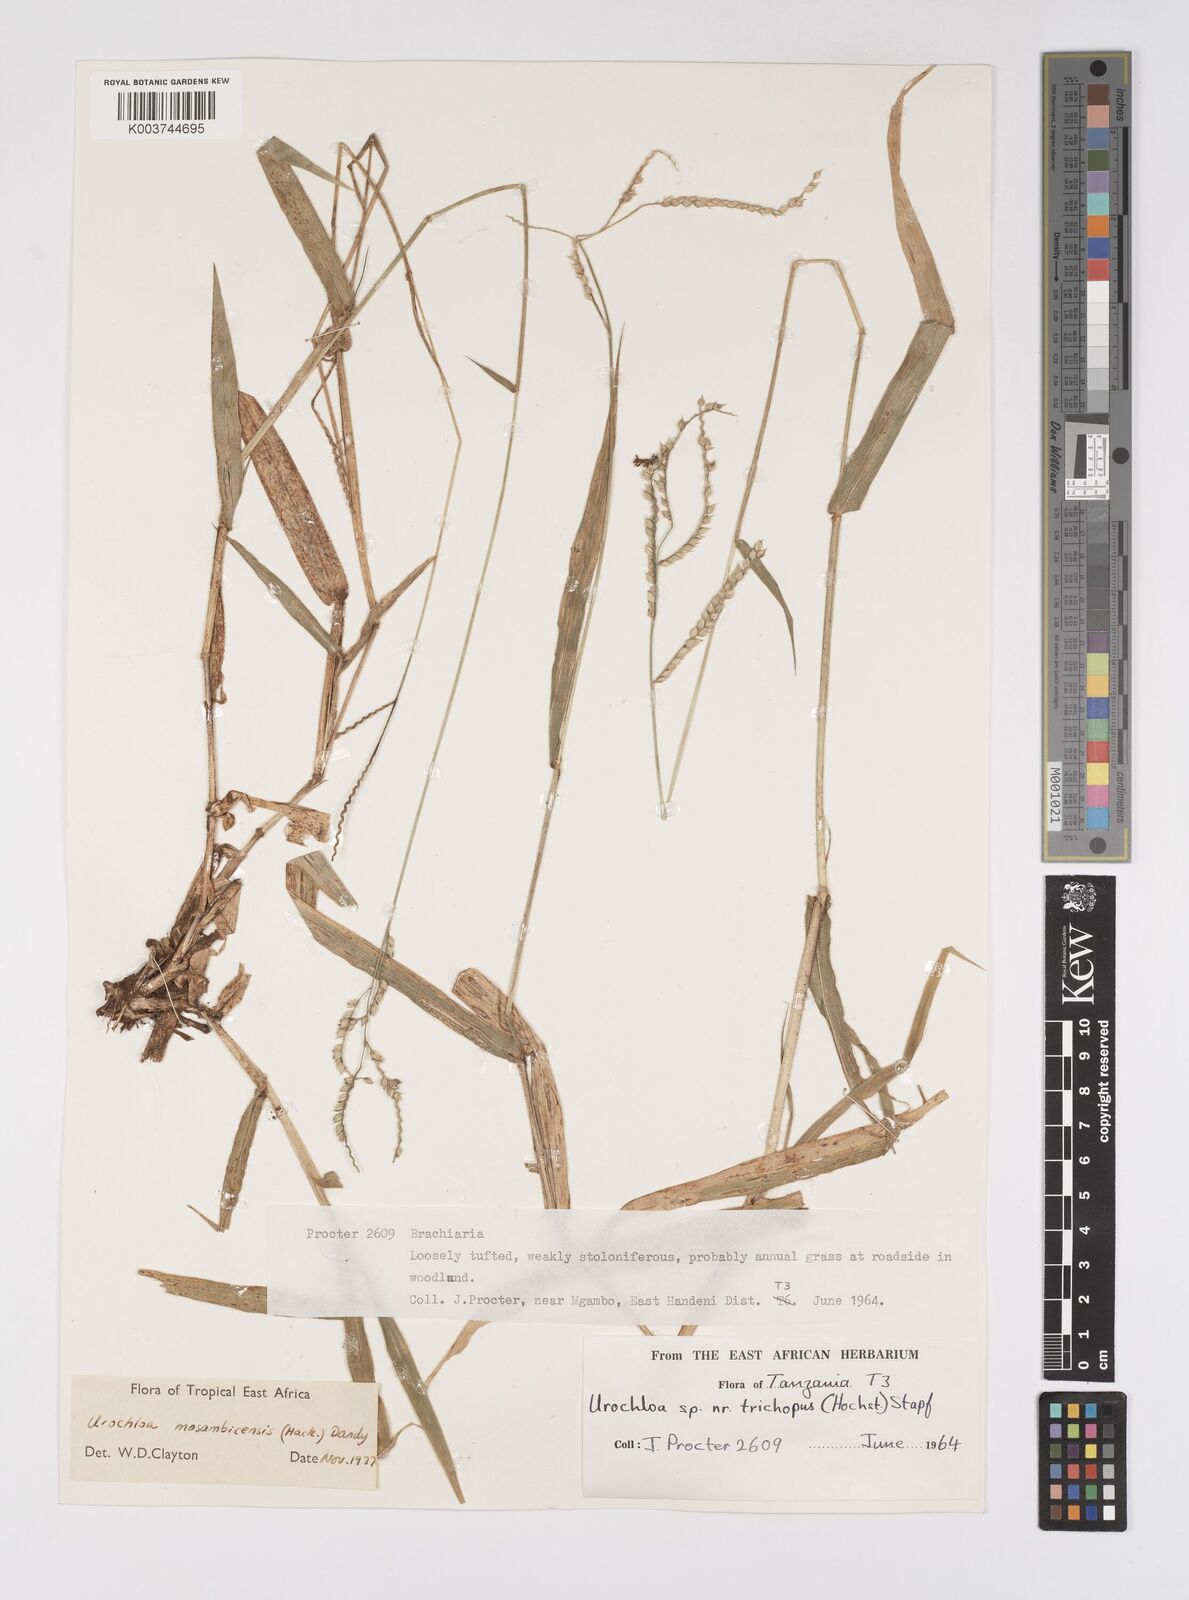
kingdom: Plantae
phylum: Tracheophyta
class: Liliopsida
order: Poales
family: Poaceae
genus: Urochloa
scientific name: Urochloa trichopus
